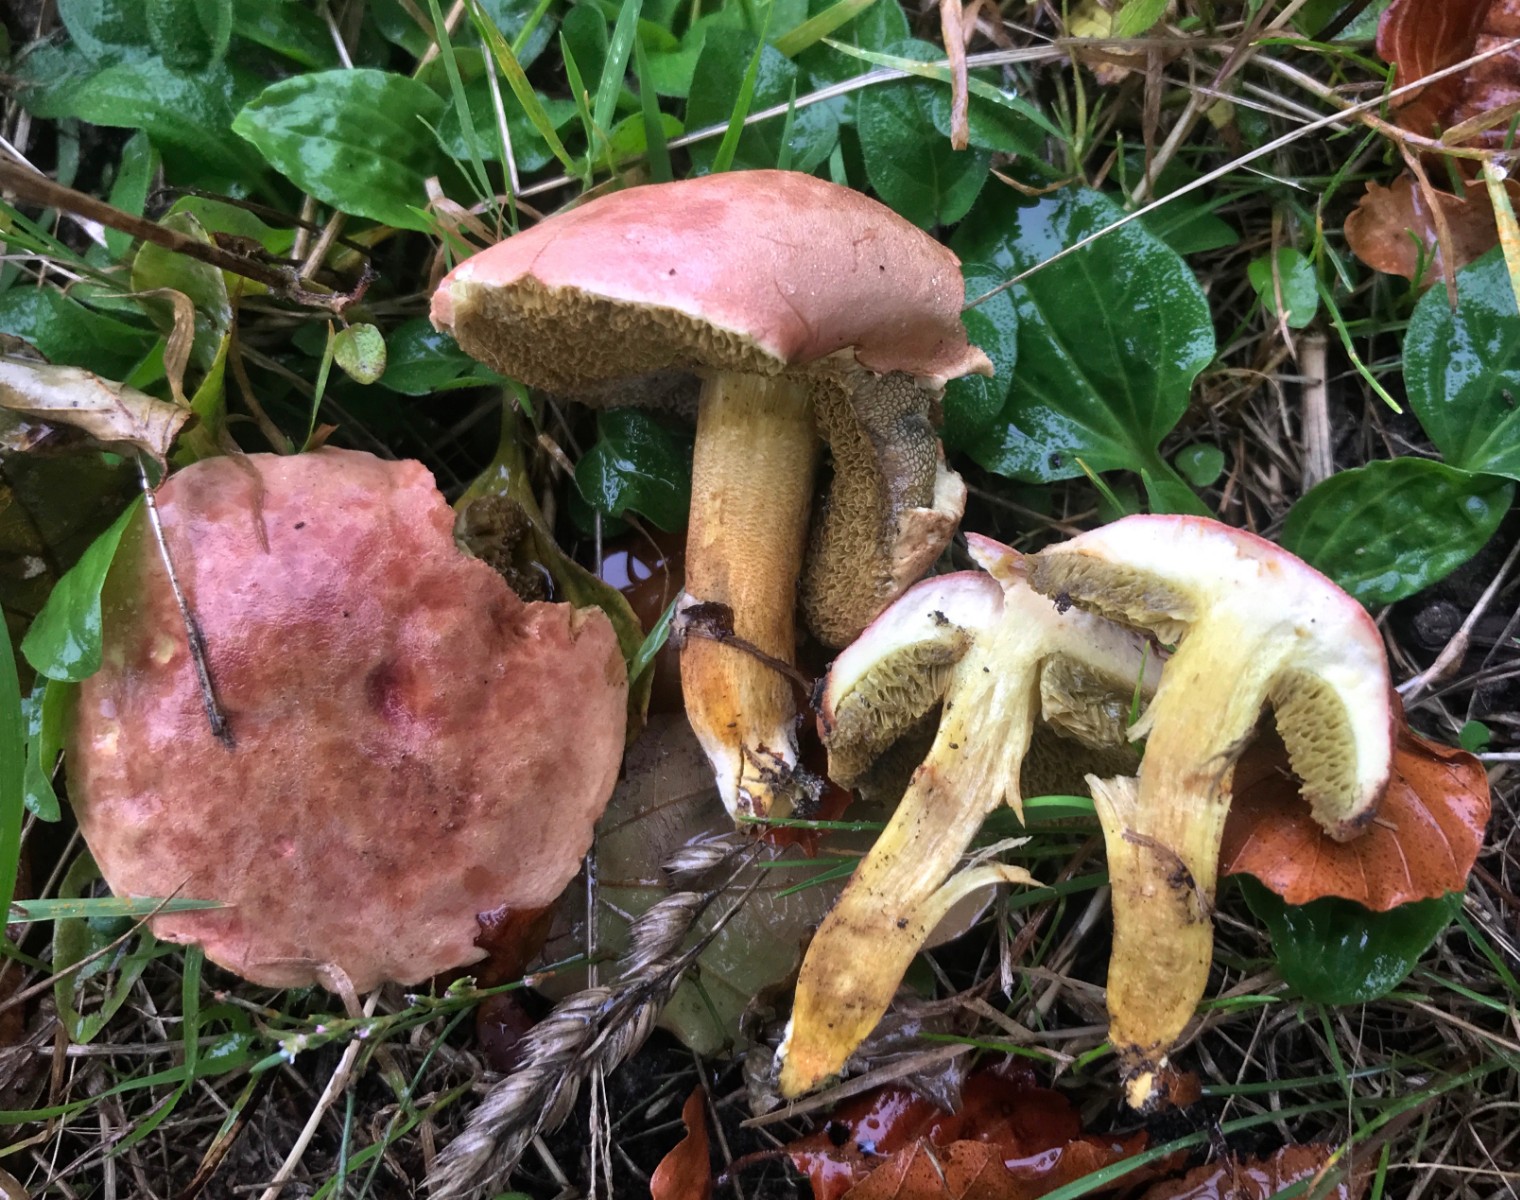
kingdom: Fungi
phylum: Basidiomycota
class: Agaricomycetes
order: Boletales
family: Boletaceae
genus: Hortiboletus
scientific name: Hortiboletus
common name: dværgrørhat
